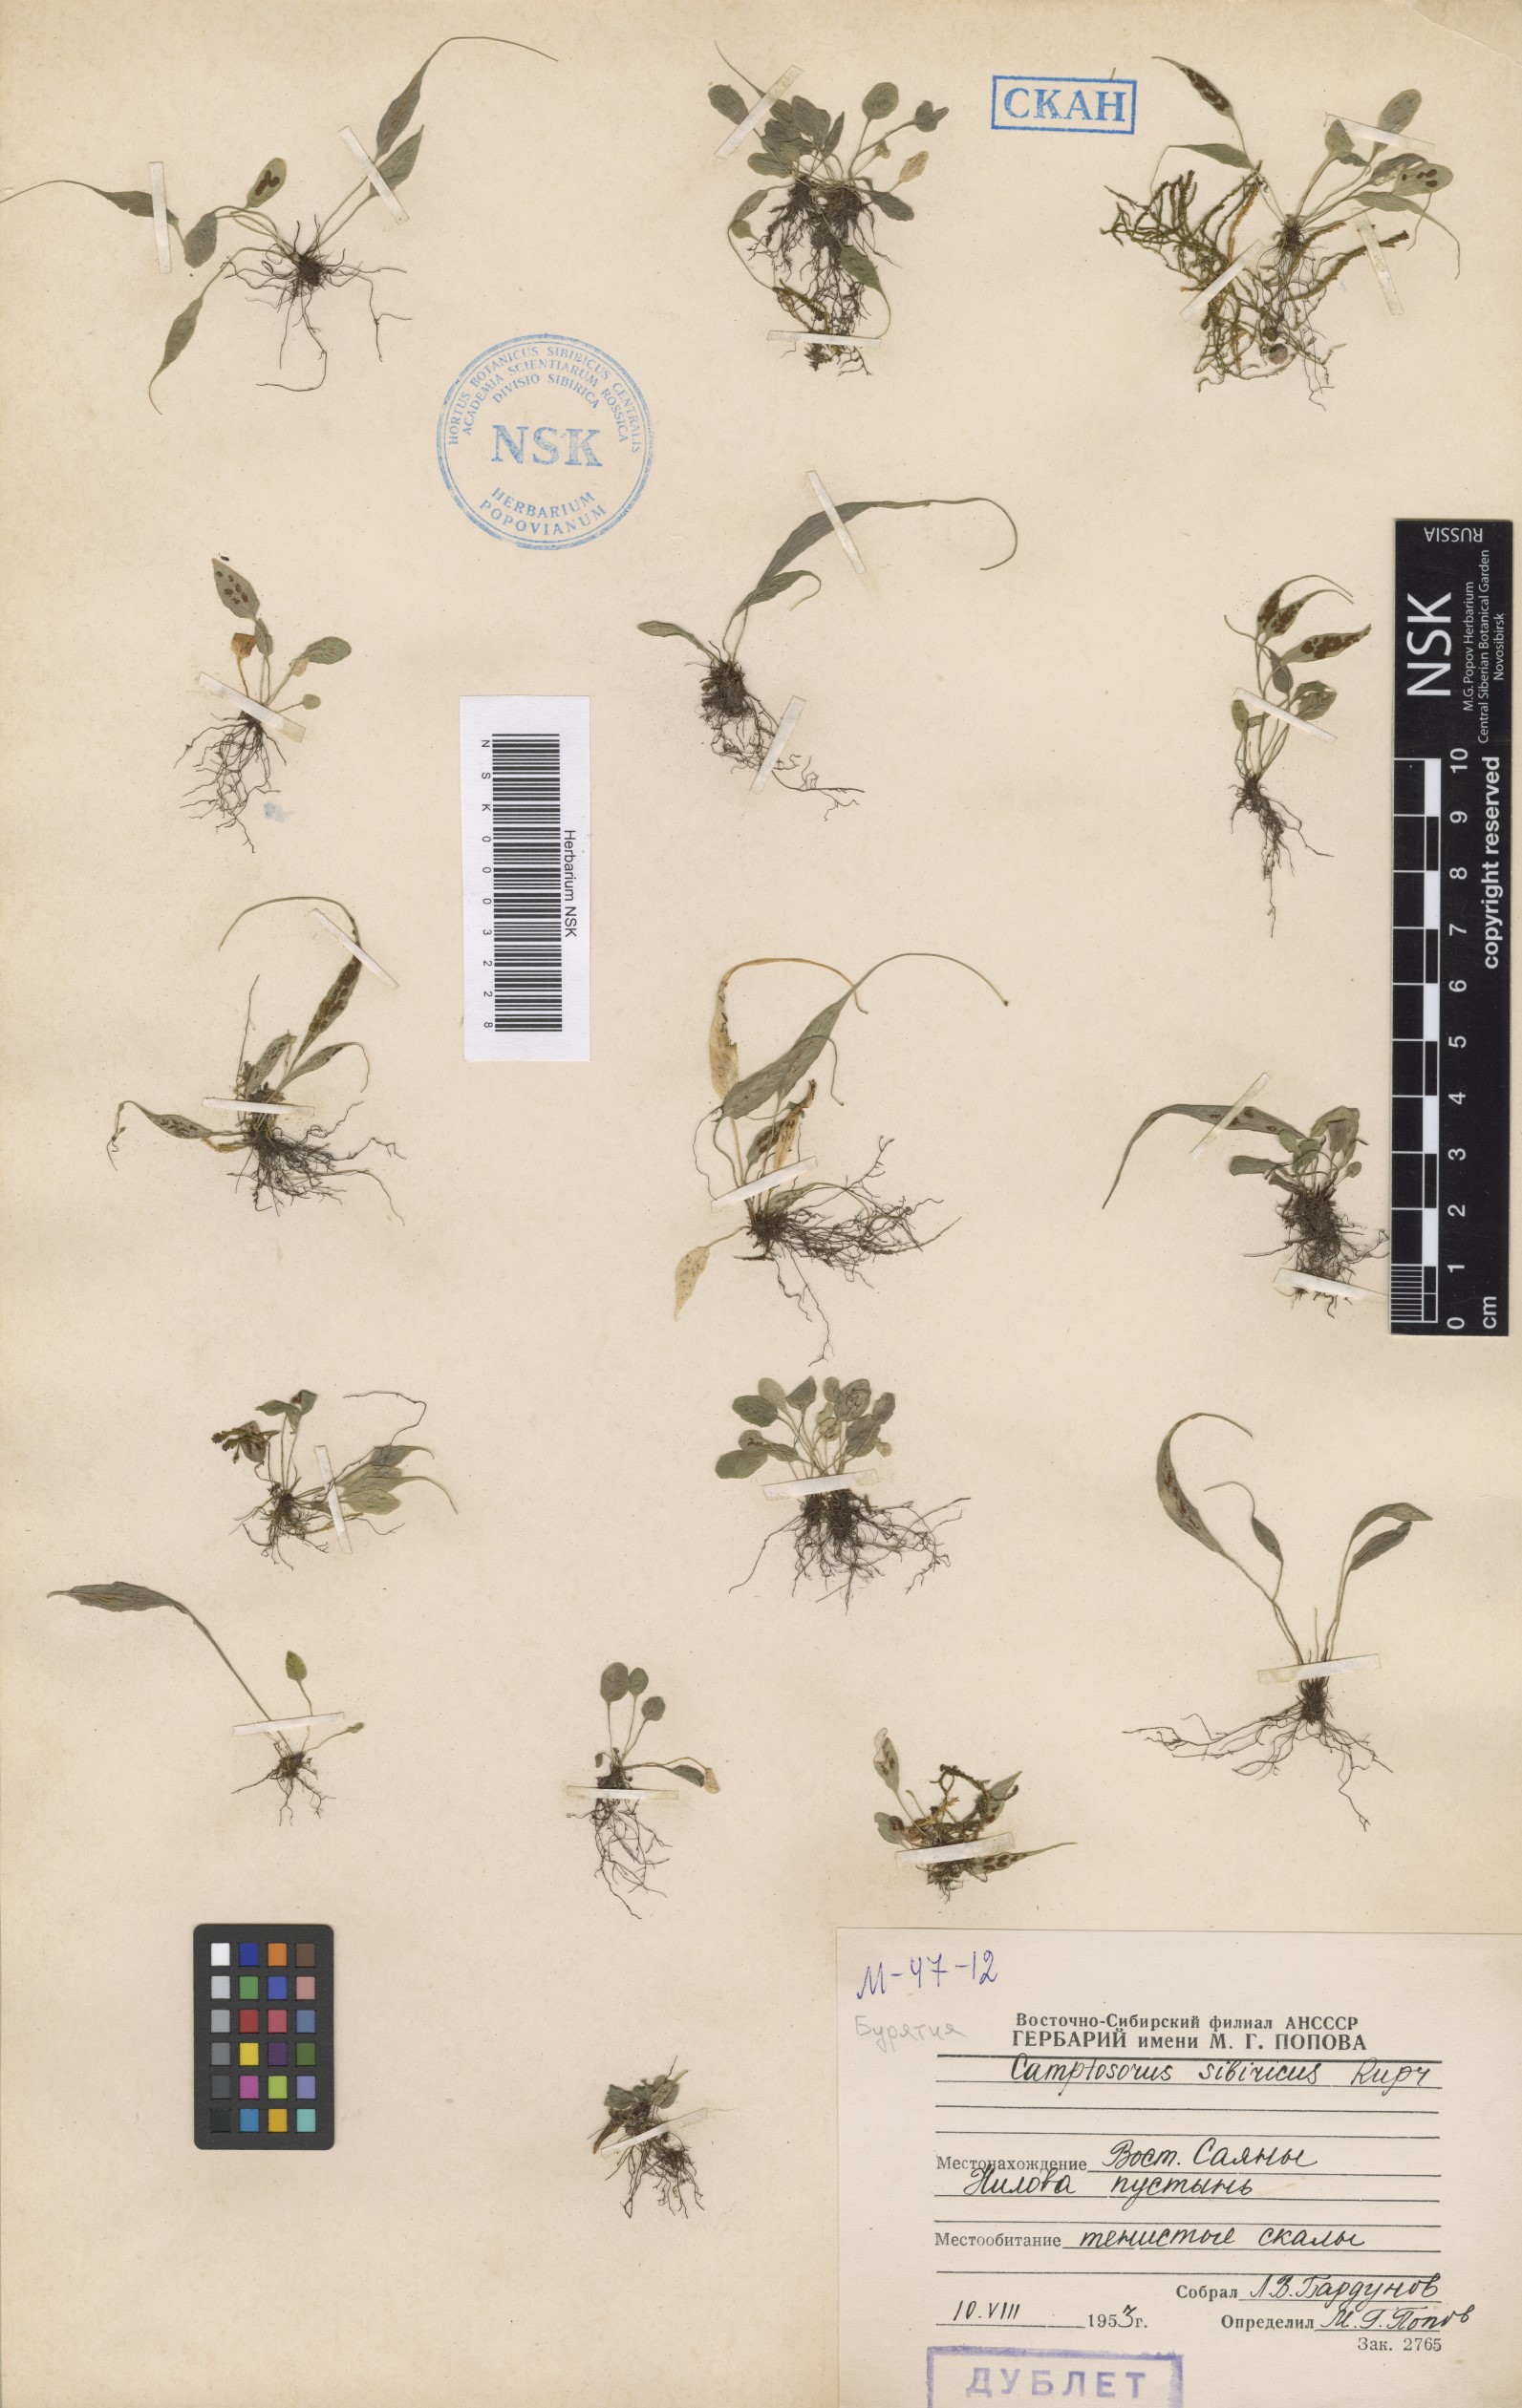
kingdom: Plantae
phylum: Tracheophyta
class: Polypodiopsida
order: Polypodiales
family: Aspleniaceae
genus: Asplenium
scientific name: Asplenium ruprechtii
